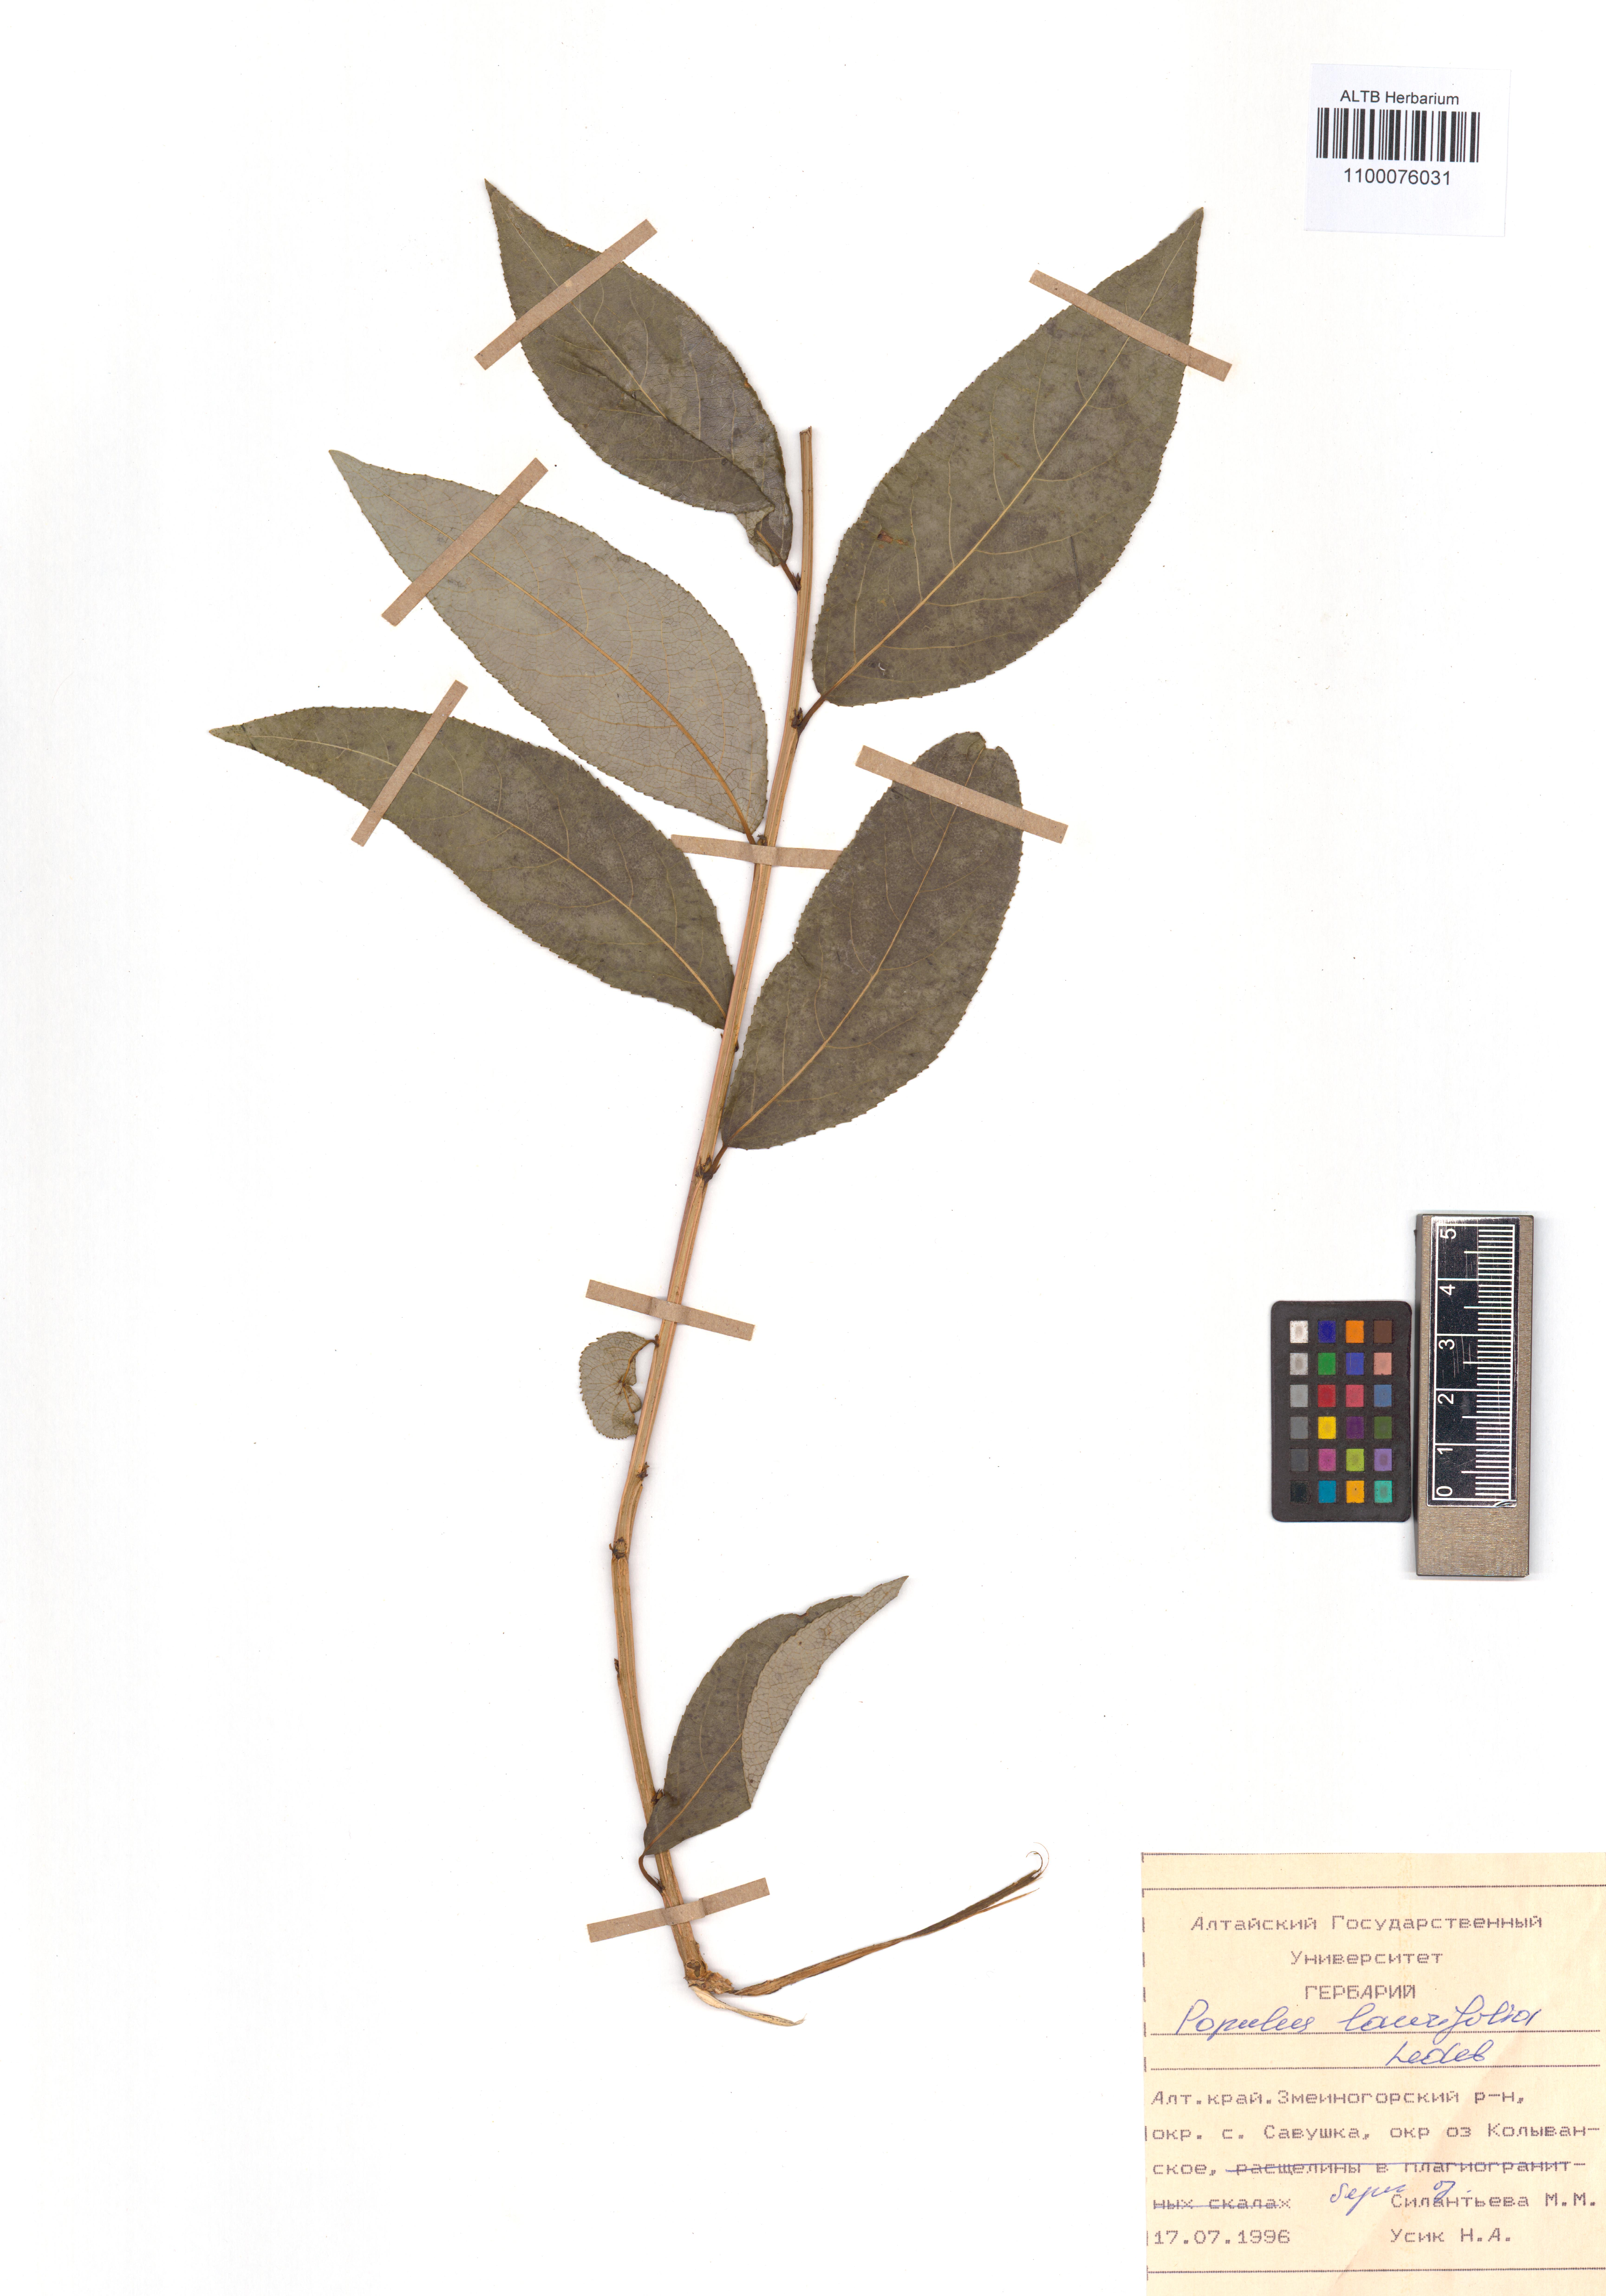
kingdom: Plantae
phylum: Tracheophyta
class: Magnoliopsida
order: Malpighiales
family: Salicaceae
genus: Populus
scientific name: Populus laurifolia
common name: Laurel-leaf poplar
